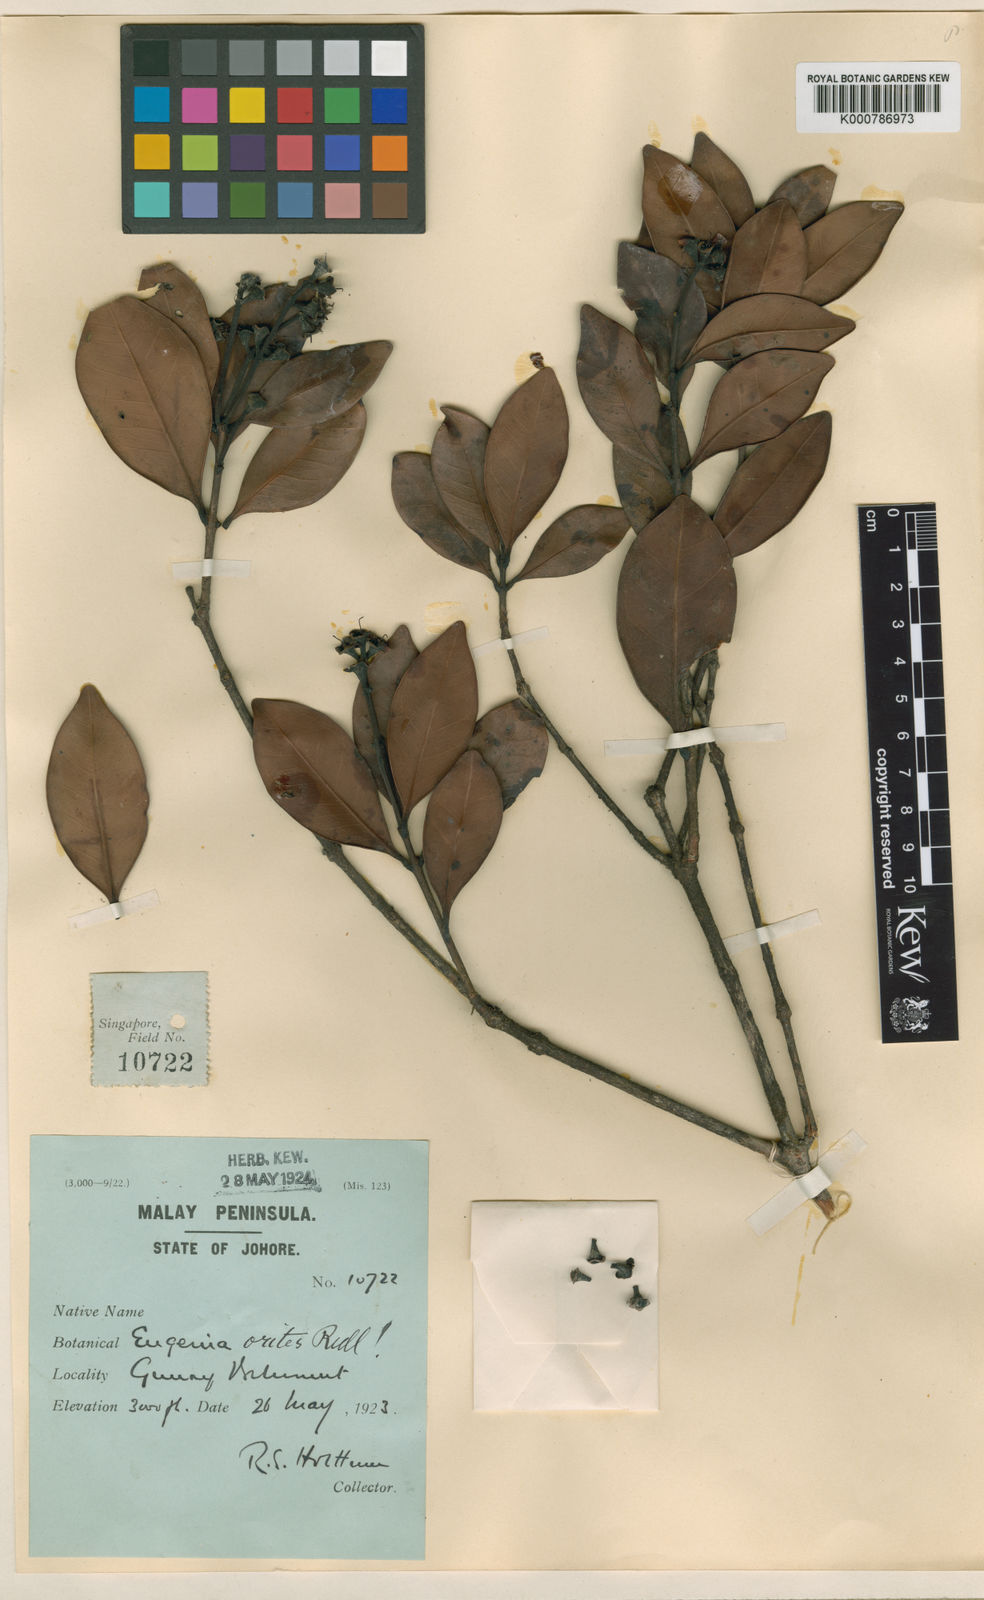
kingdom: Plantae
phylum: Tracheophyta
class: Magnoliopsida
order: Myrtales
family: Myrtaceae
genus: Syzygium
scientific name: Syzygium orites
